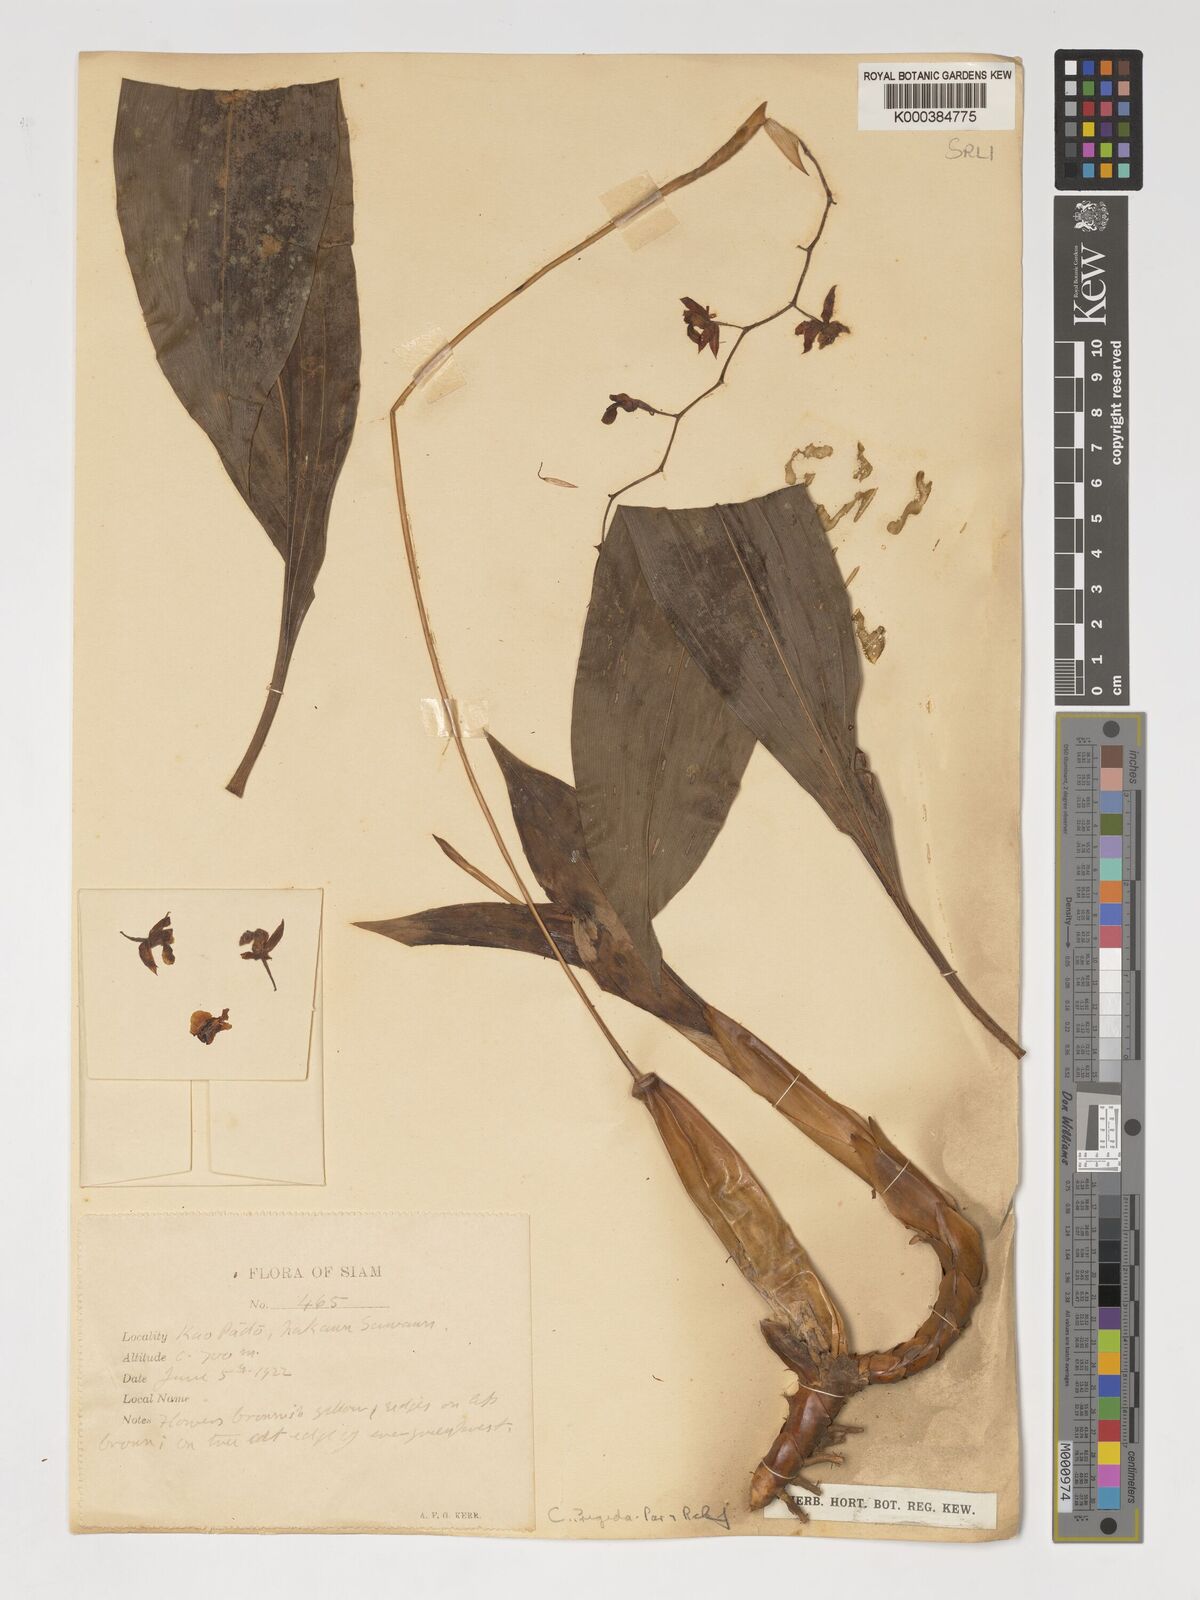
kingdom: Plantae
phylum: Tracheophyta
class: Liliopsida
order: Asparagales
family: Orchidaceae
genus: Coelogyne
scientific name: Coelogyne rigida
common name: Rigid coelogyne
